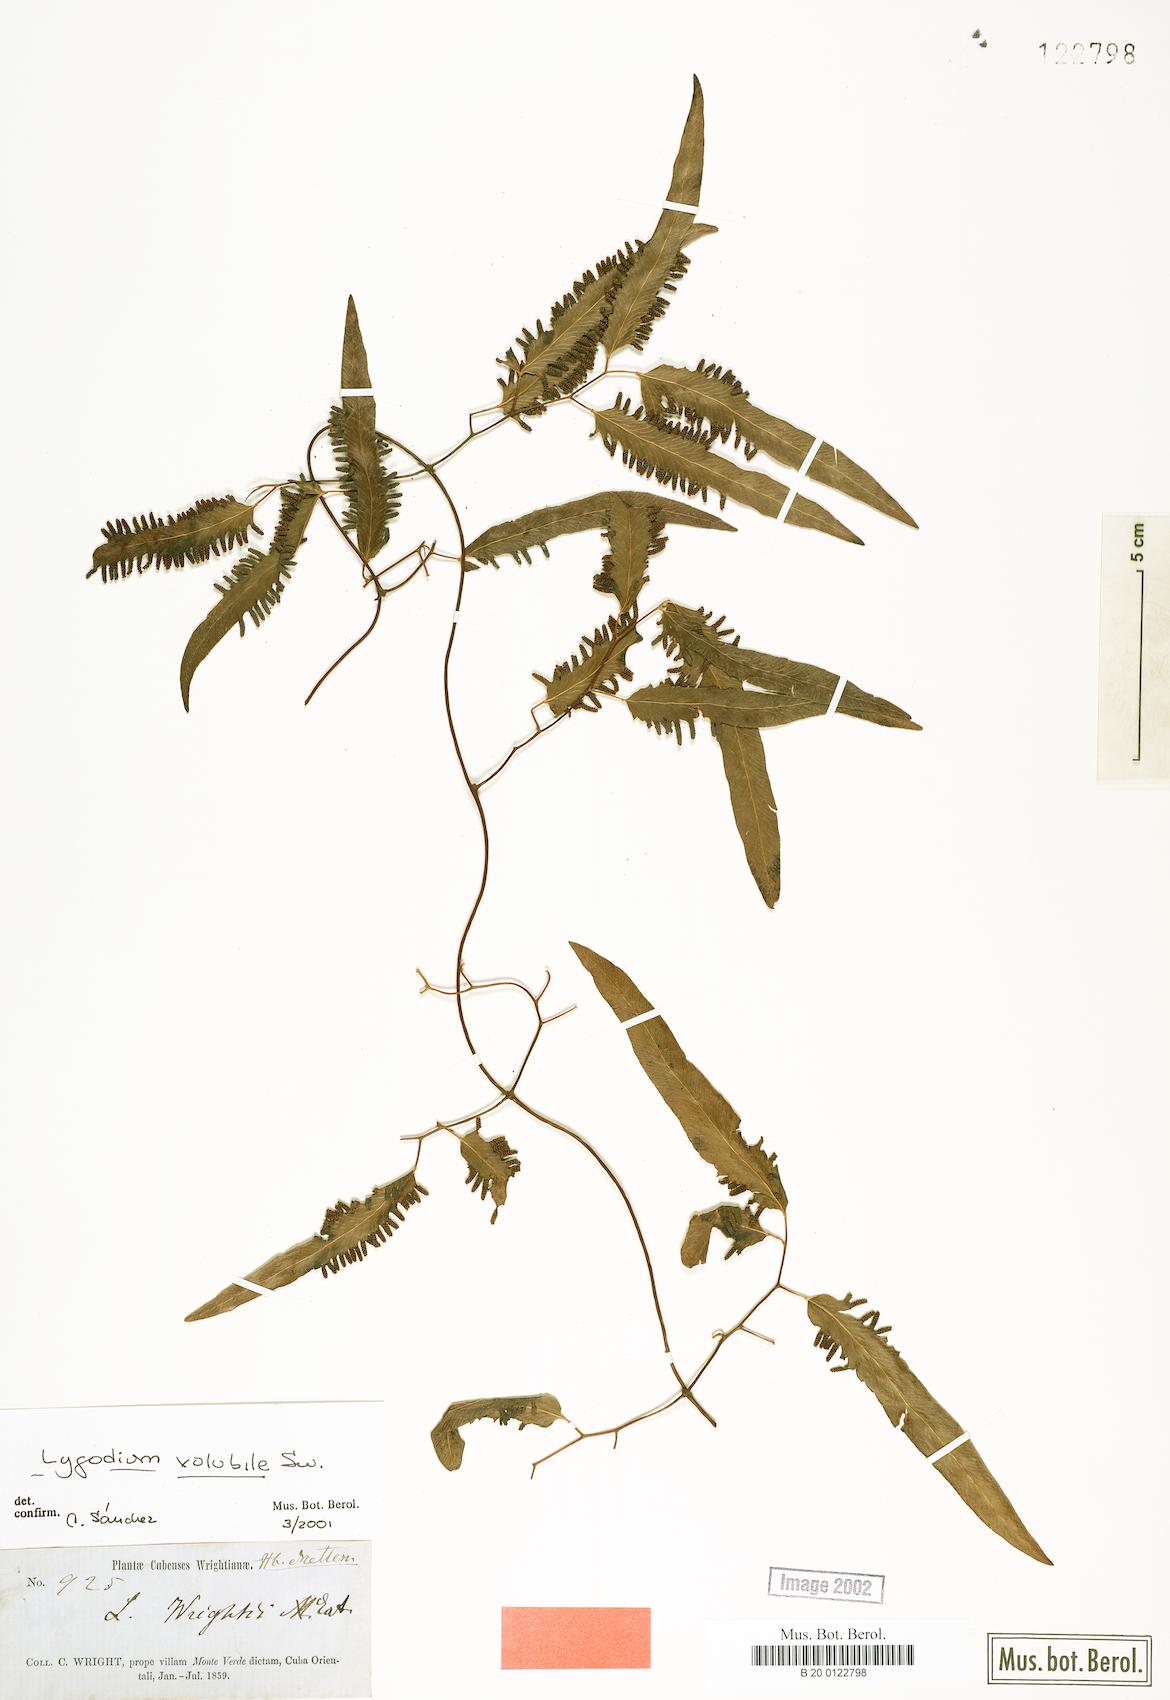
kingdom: Plantae
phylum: Tracheophyta
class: Polypodiopsida
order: Schizaeales
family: Lygodiaceae
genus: Lygodium
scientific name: Lygodium volubile
